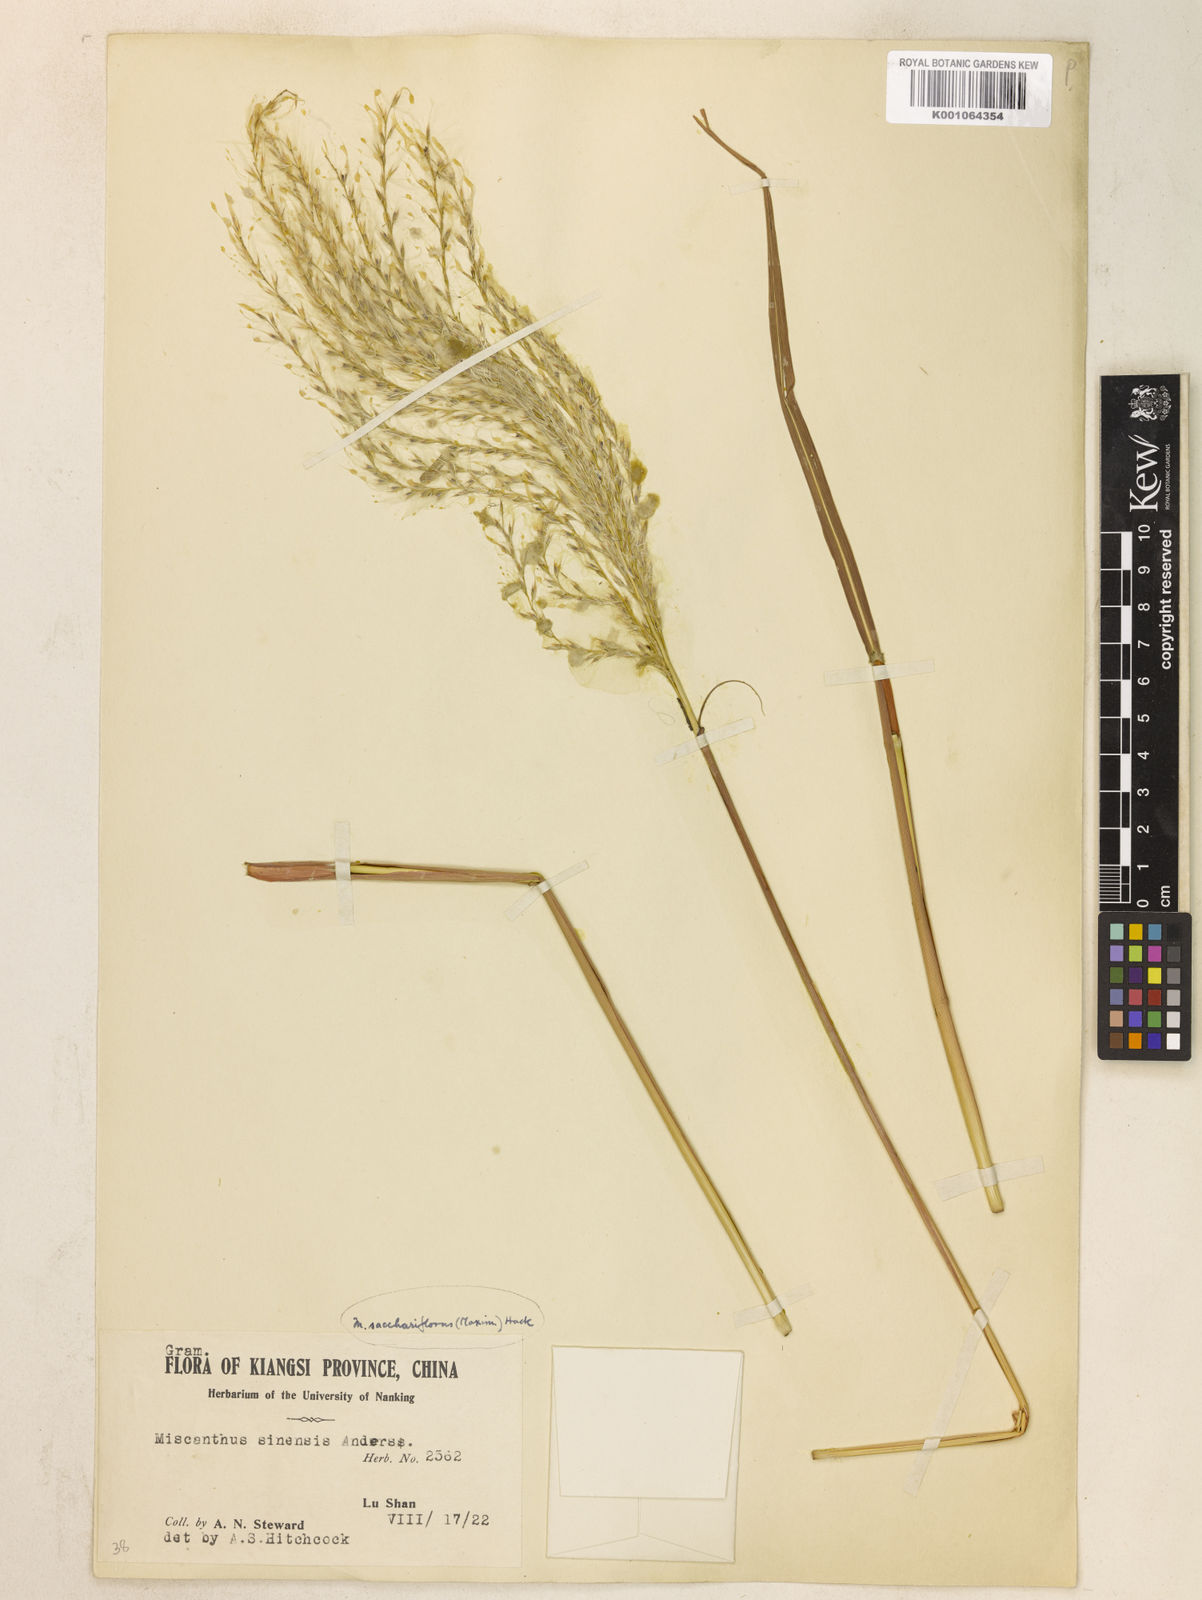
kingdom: Plantae
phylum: Tracheophyta
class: Liliopsida
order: Poales
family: Poaceae
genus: Miscanthus
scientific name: Miscanthus
